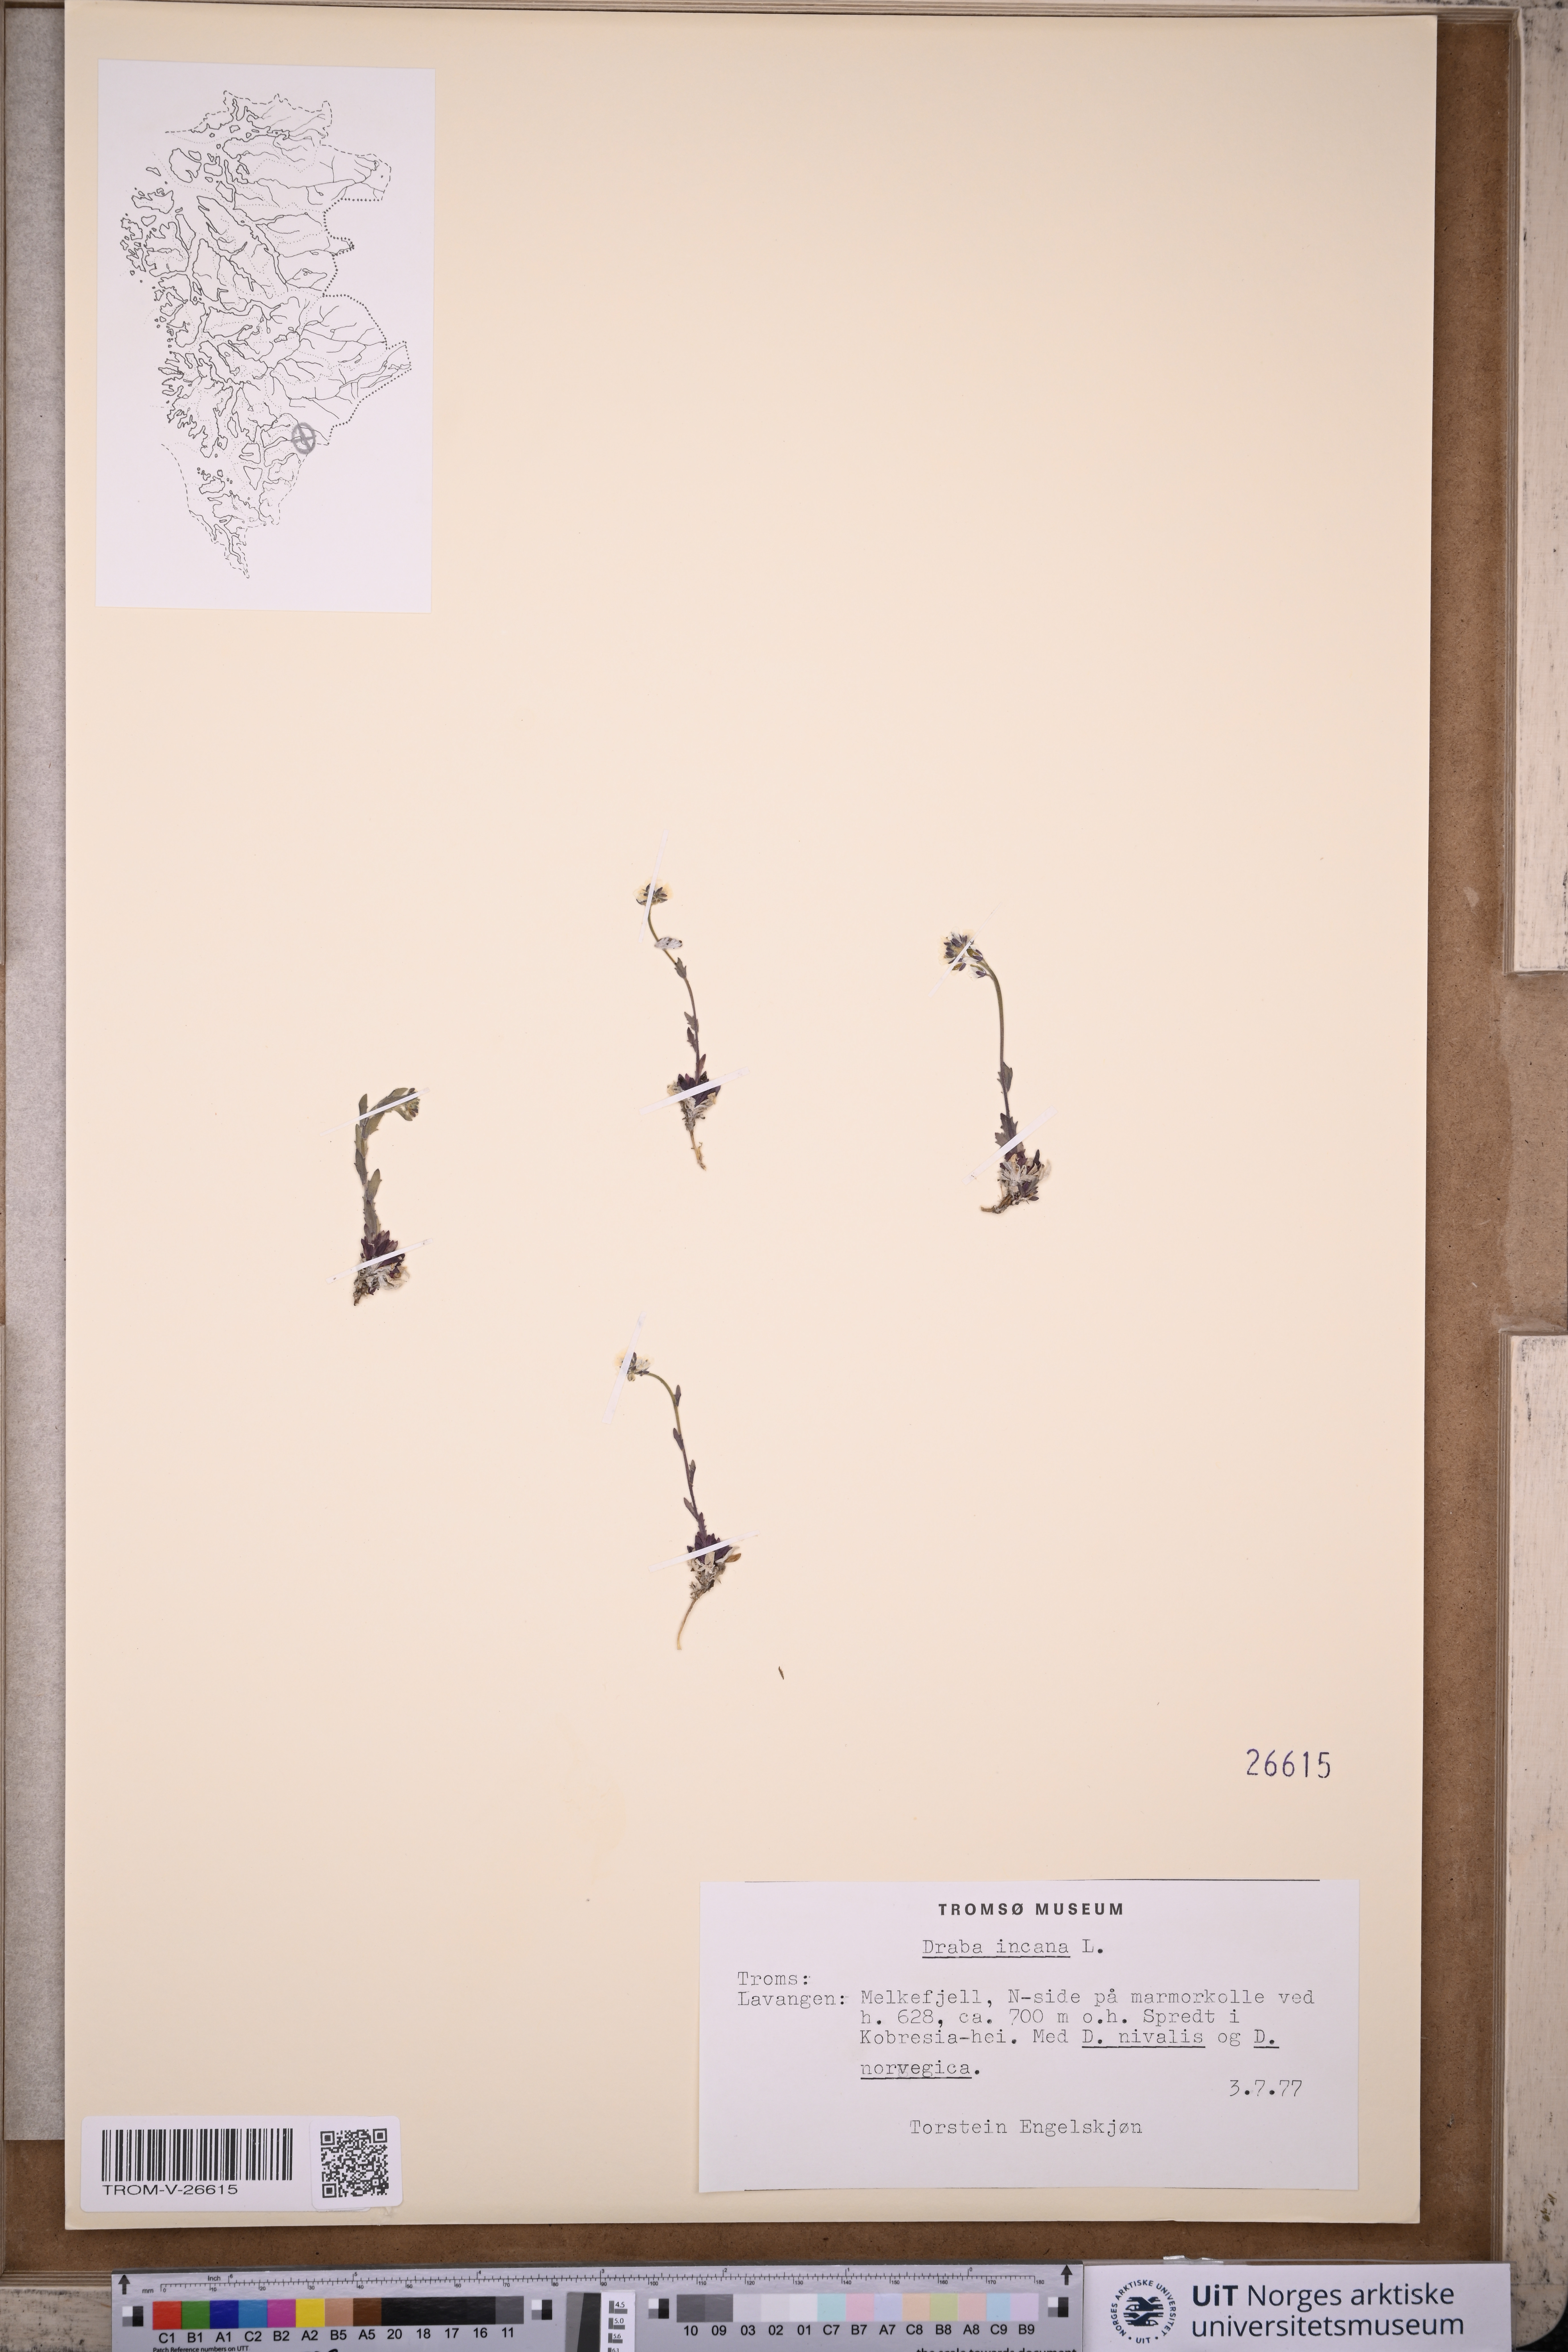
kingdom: Plantae
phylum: Tracheophyta
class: Magnoliopsida
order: Brassicales
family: Brassicaceae
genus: Draba
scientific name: Draba incana
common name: Hoary whitlow-grass
